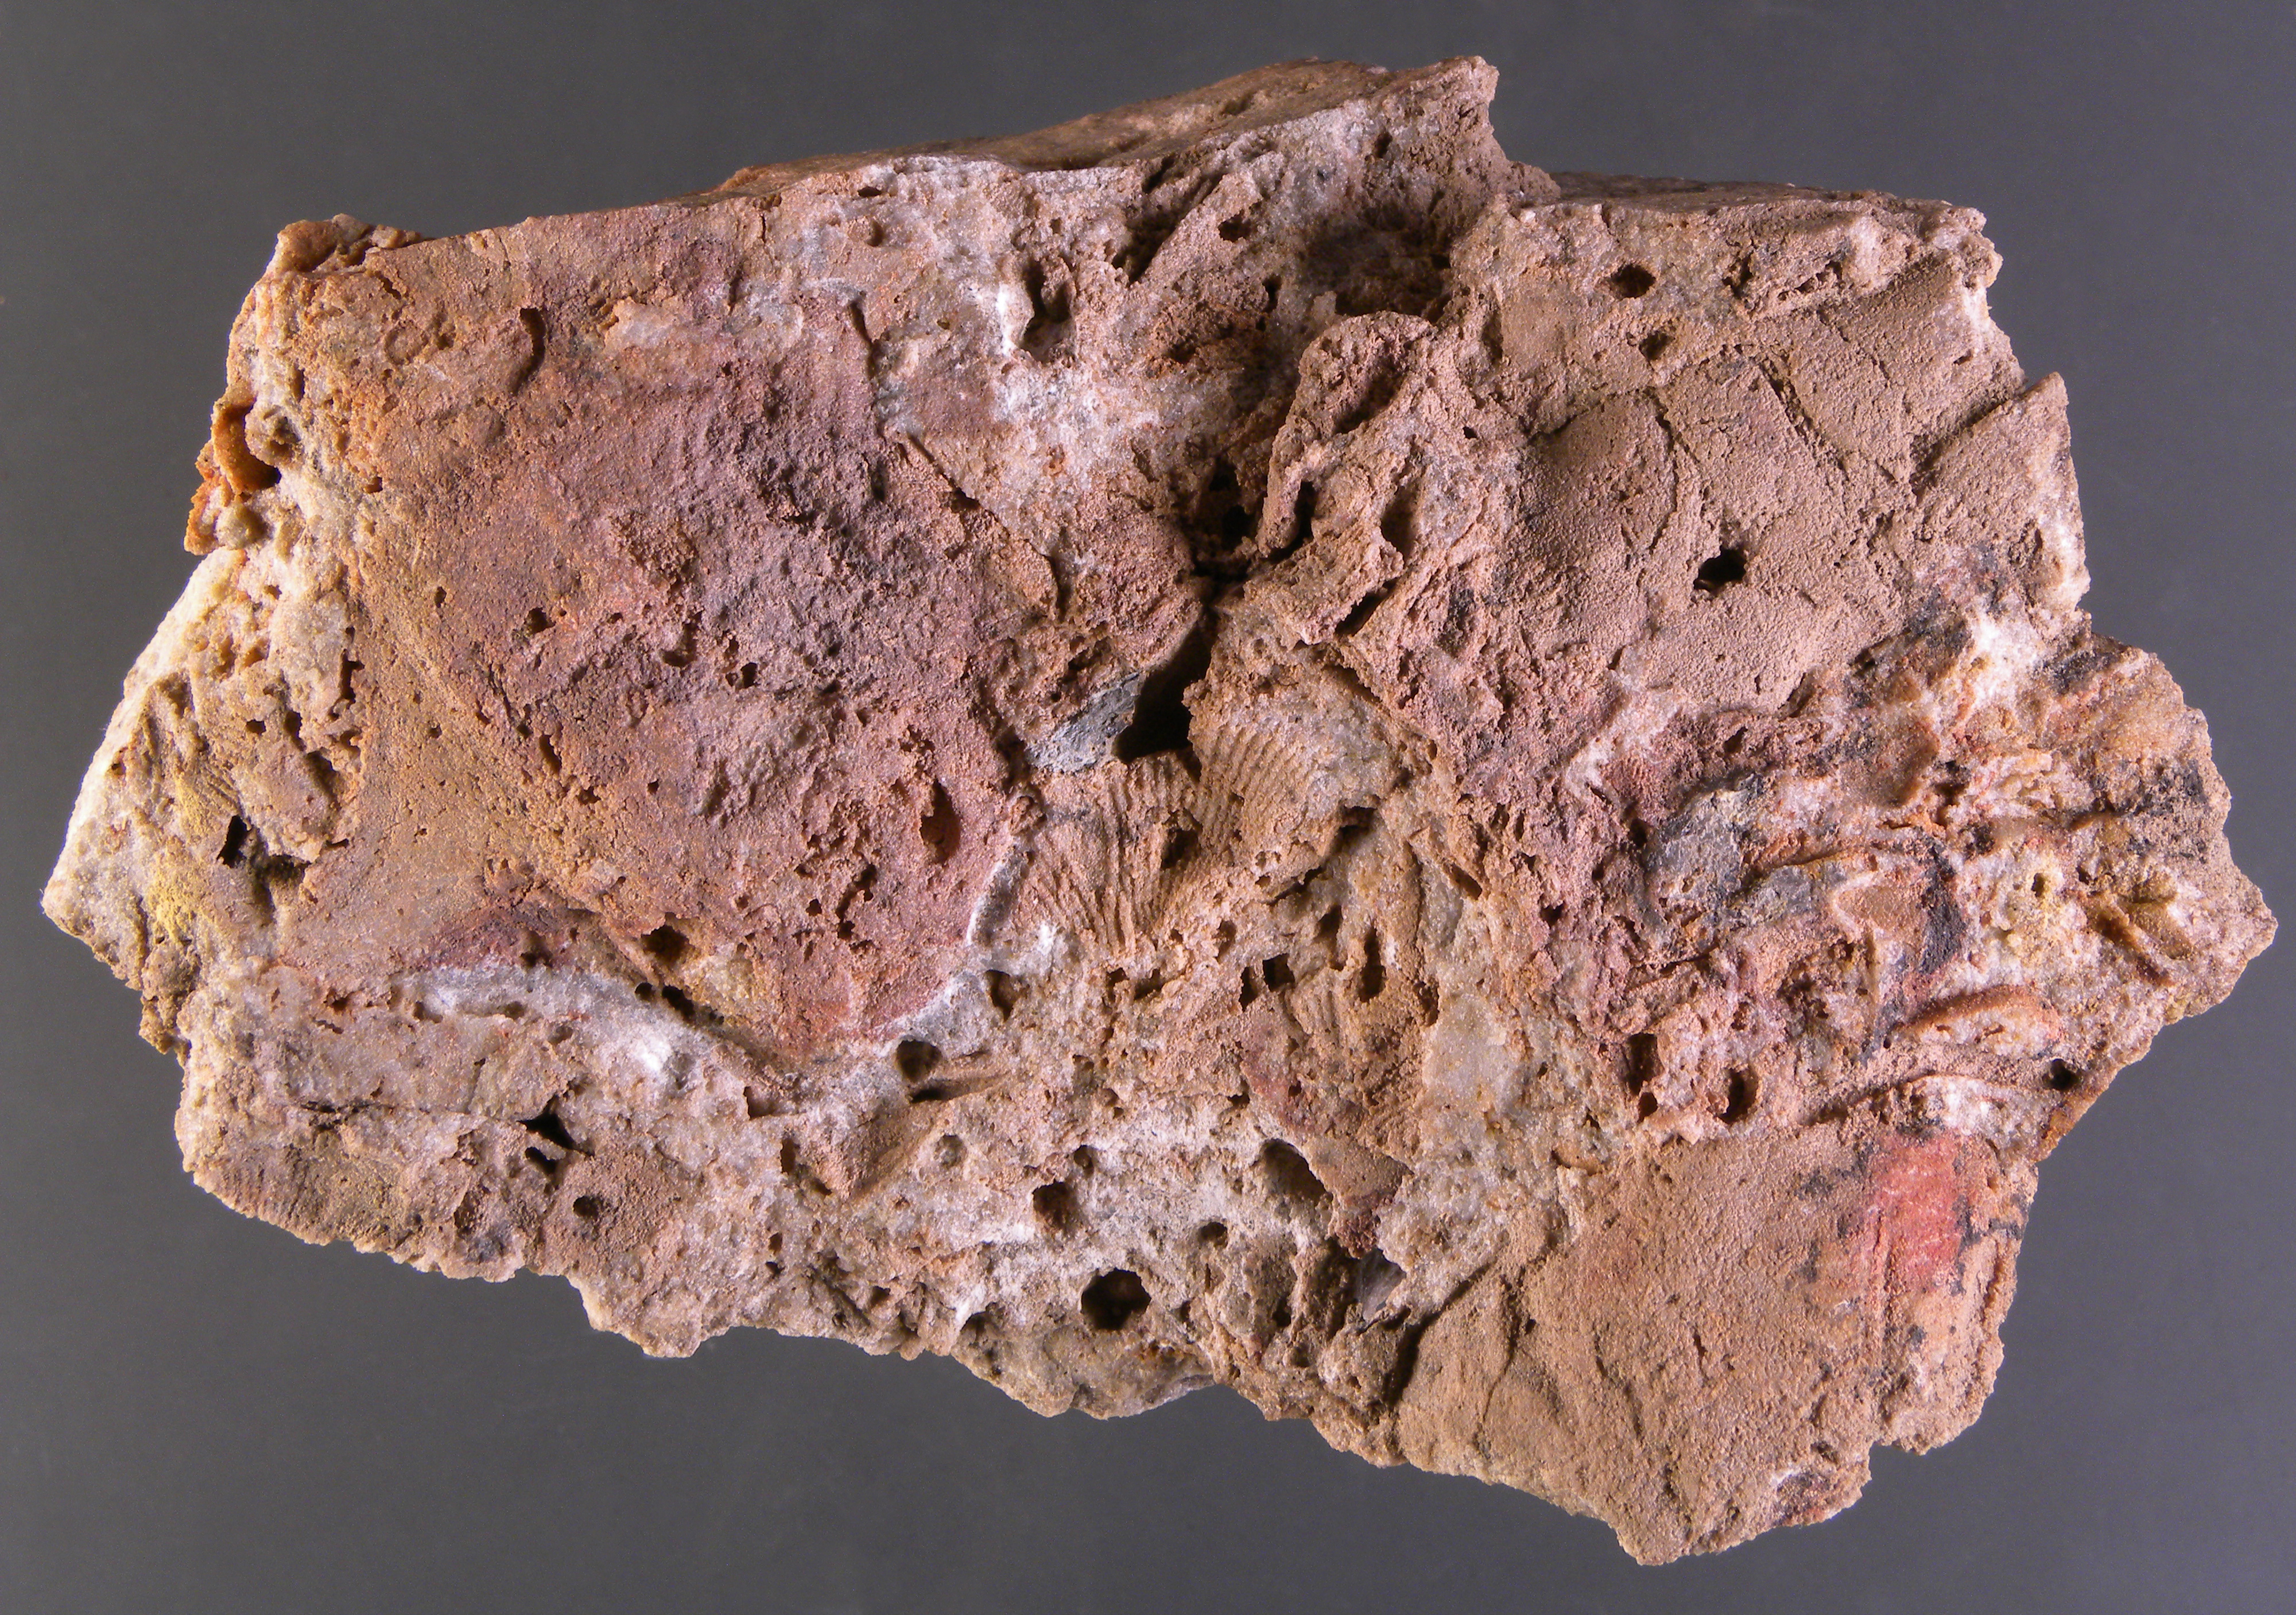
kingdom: Animalia
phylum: Mollusca
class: Bivalvia
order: Ostreida
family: Pterineidae
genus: Limoptera
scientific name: Limoptera
